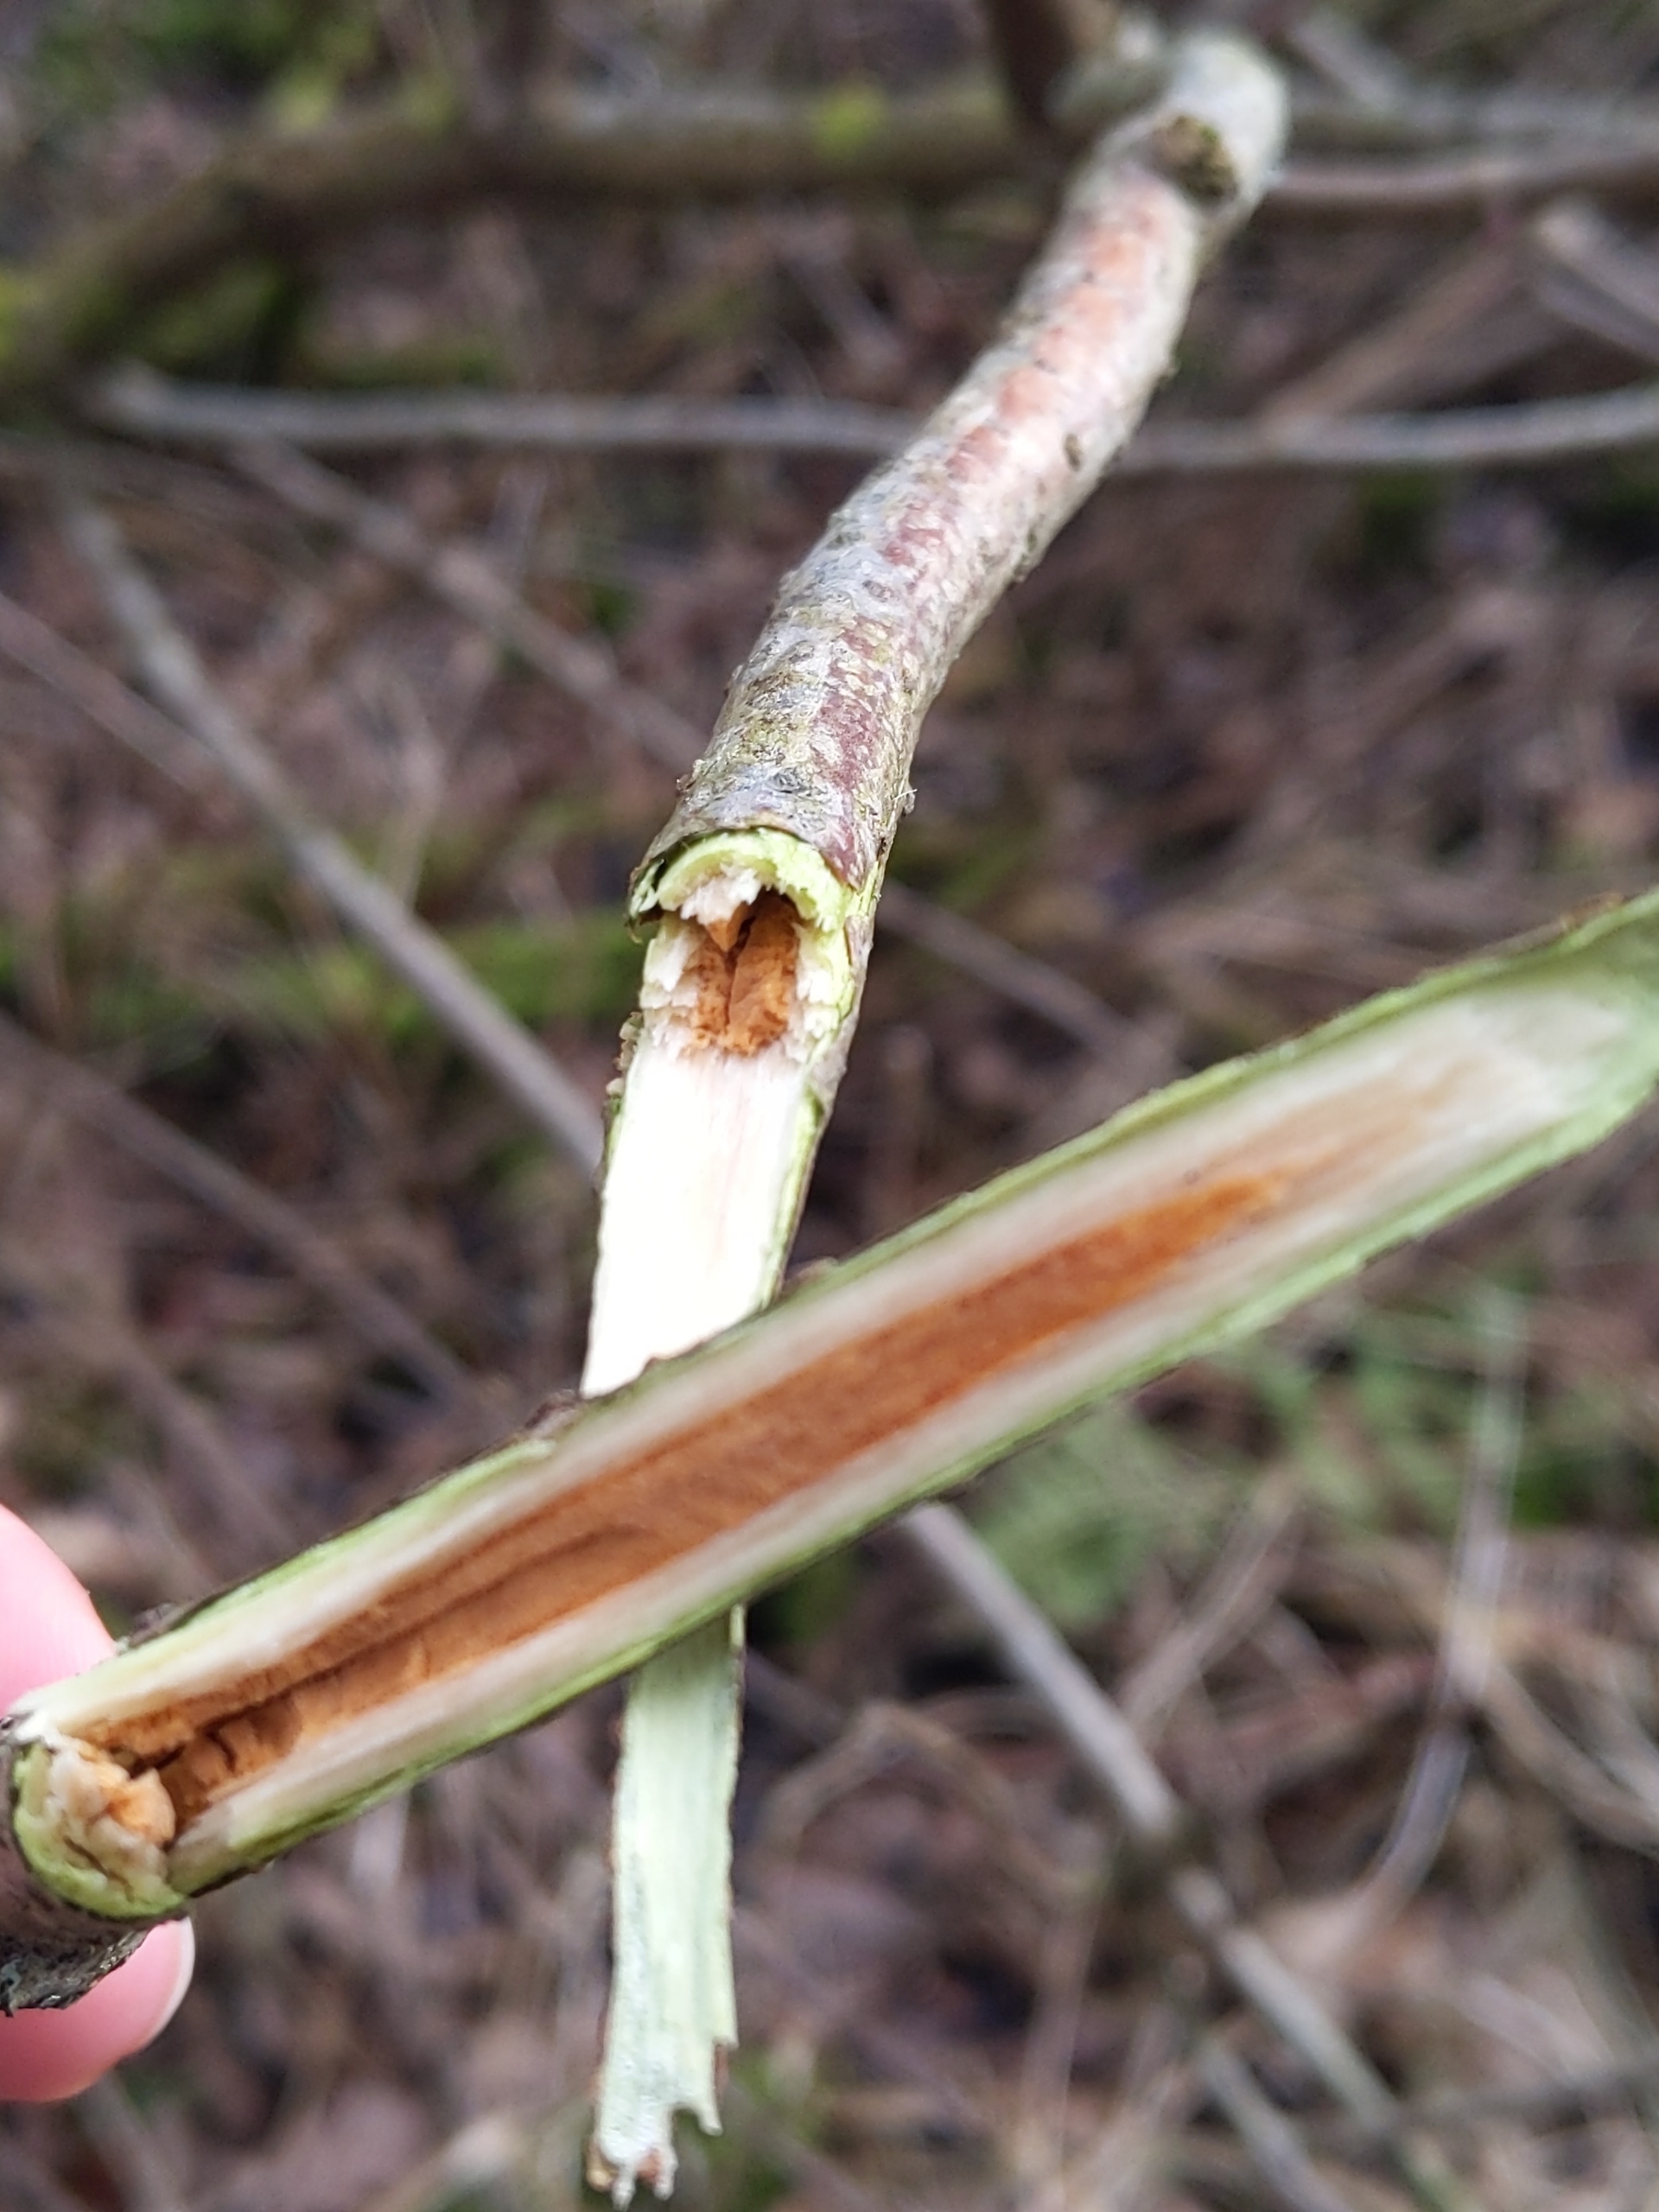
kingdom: Plantae
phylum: Tracheophyta
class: Magnoliopsida
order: Dipsacales
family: Viburnaceae
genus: Sambucus
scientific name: Sambucus racemosa
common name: Drue-hyld
